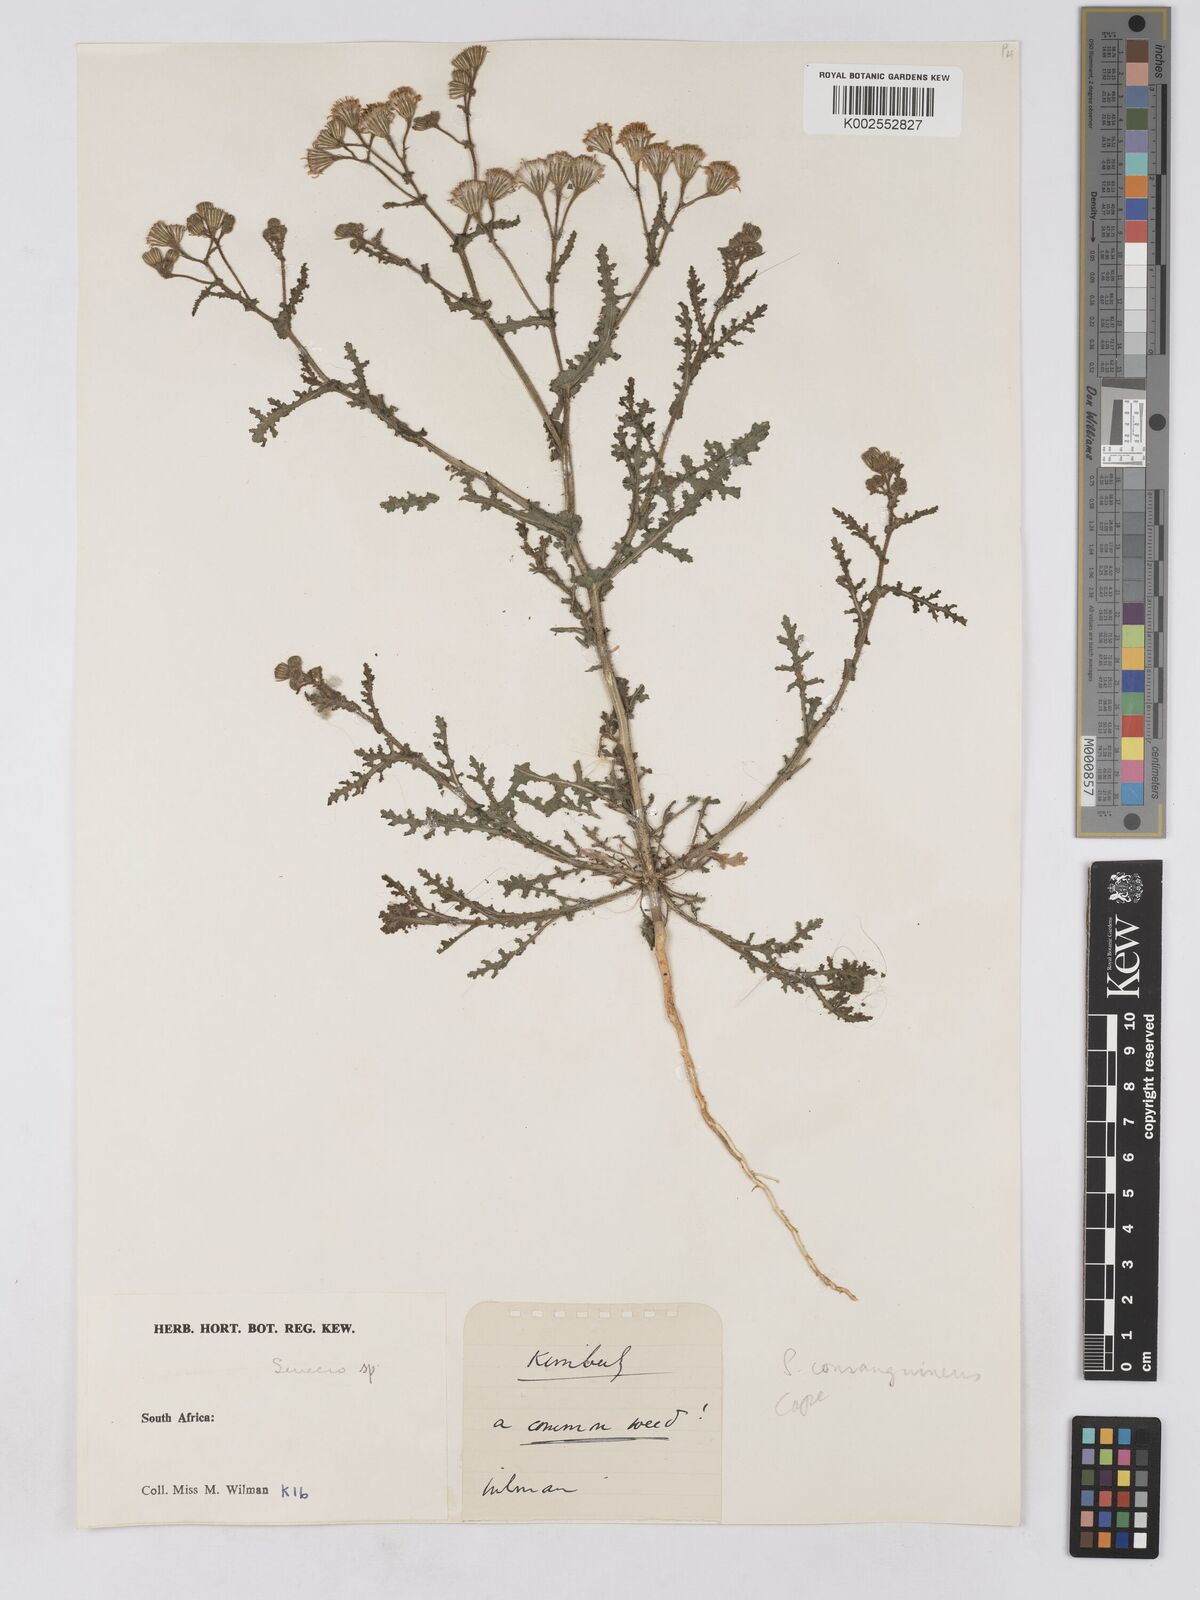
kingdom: Plantae
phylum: Tracheophyta
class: Magnoliopsida
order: Asterales
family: Asteraceae
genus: Senecio
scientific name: Senecio consanguineus
